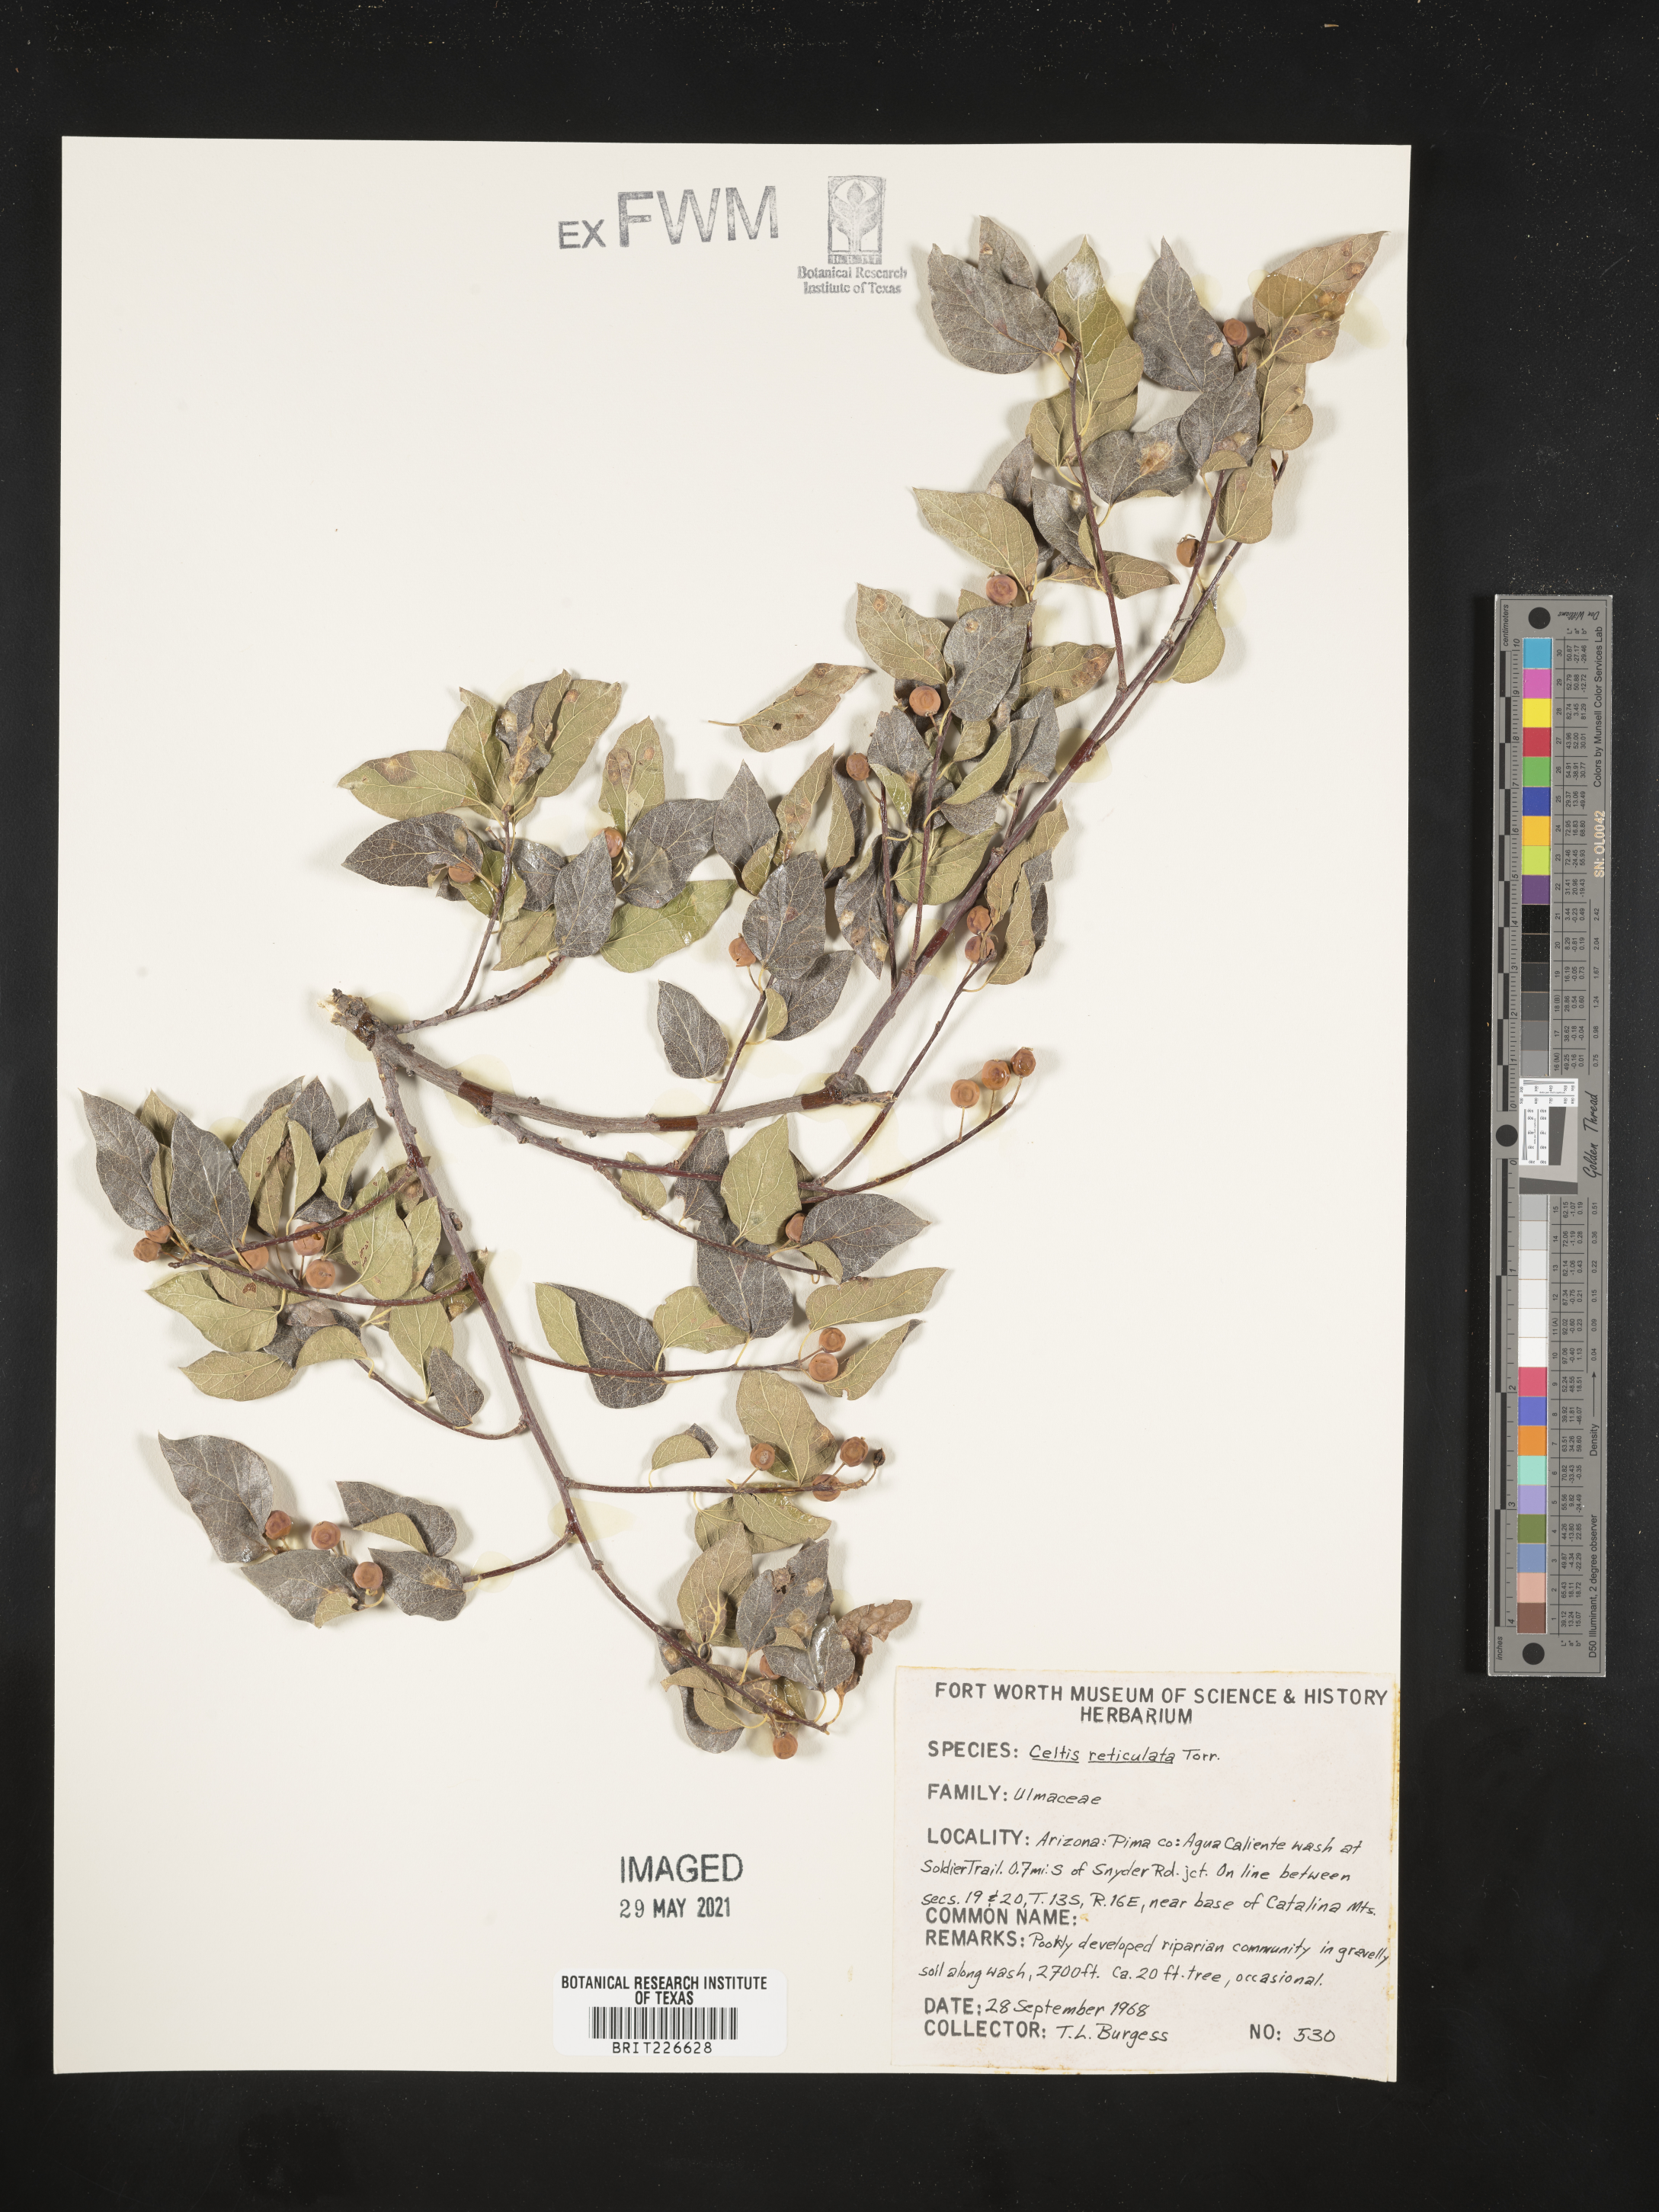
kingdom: Plantae
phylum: Tracheophyta
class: Magnoliopsida
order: Rosales
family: Cannabaceae
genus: Celtis
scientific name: Celtis reticulata
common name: Netleaf hackberry
